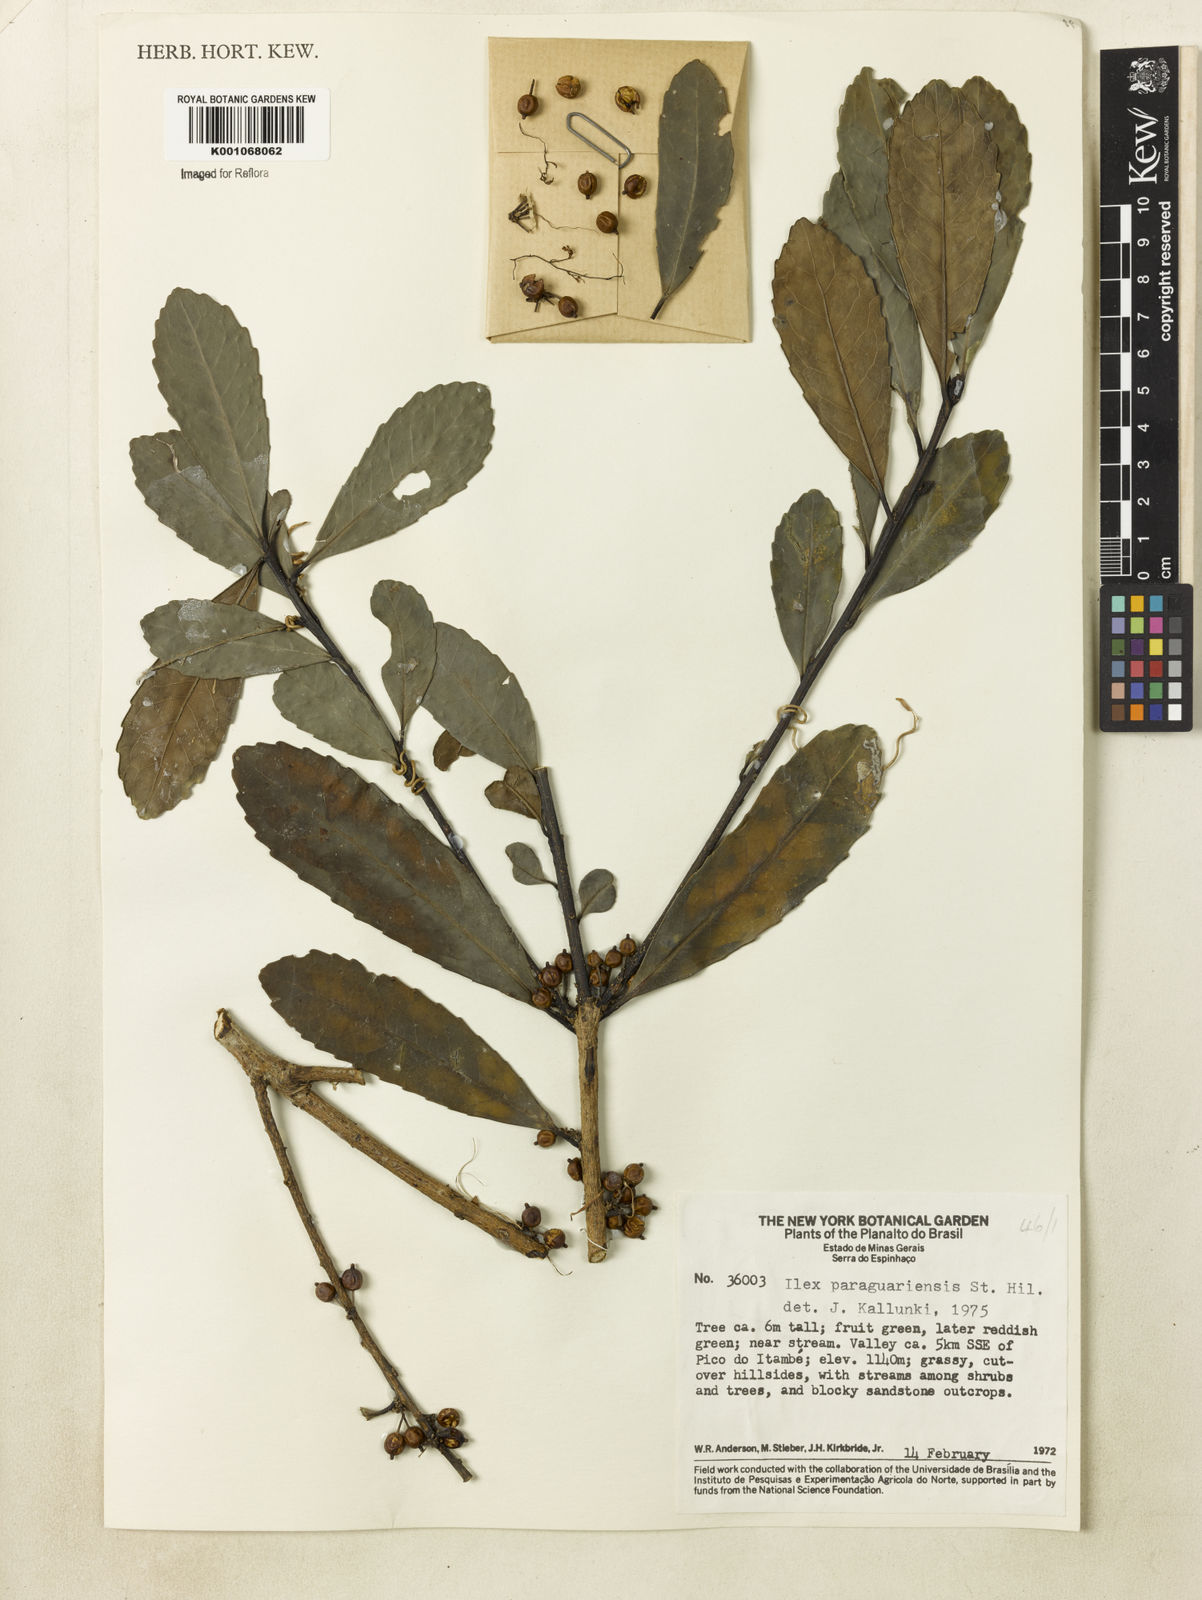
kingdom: Plantae
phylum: Tracheophyta
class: Magnoliopsida
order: Aquifoliales
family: Aquifoliaceae
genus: Ilex
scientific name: Ilex paraguariensis
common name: Paraguay tea
